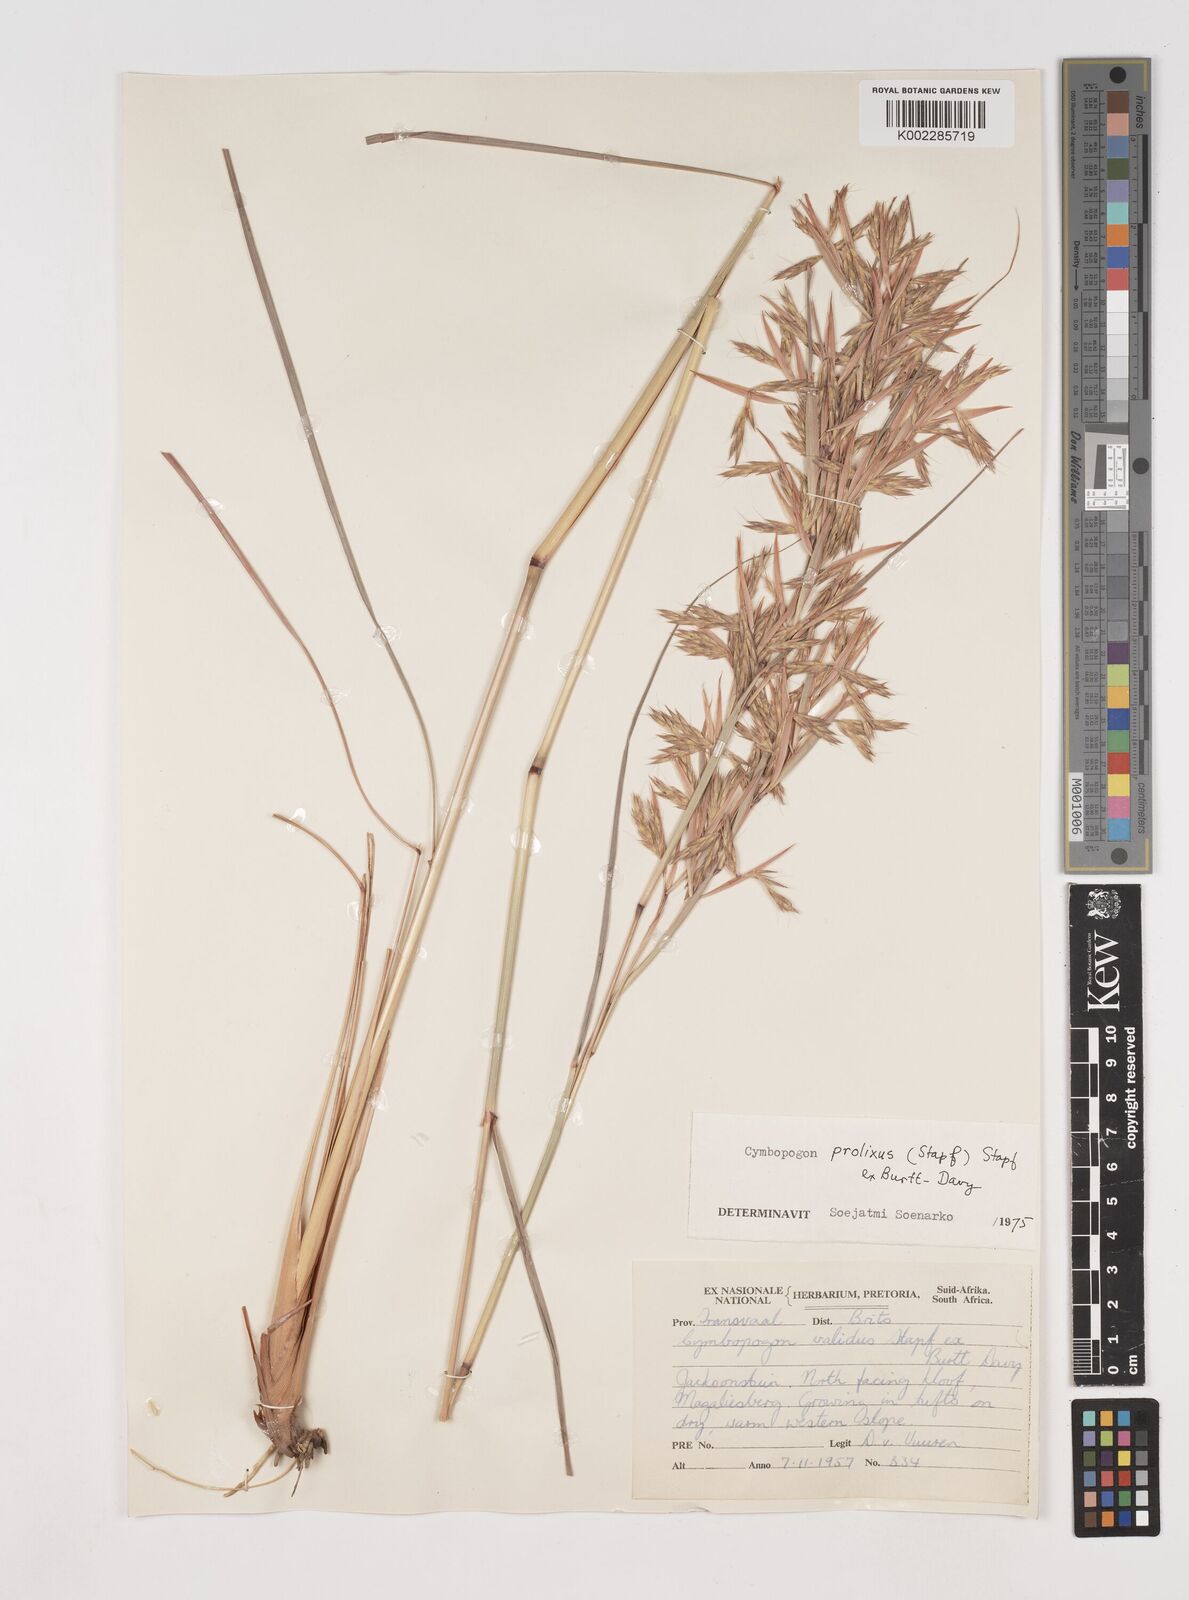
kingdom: Plantae
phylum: Tracheophyta
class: Liliopsida
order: Poales
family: Poaceae
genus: Cymbopogon
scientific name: Cymbopogon dieterlenii
